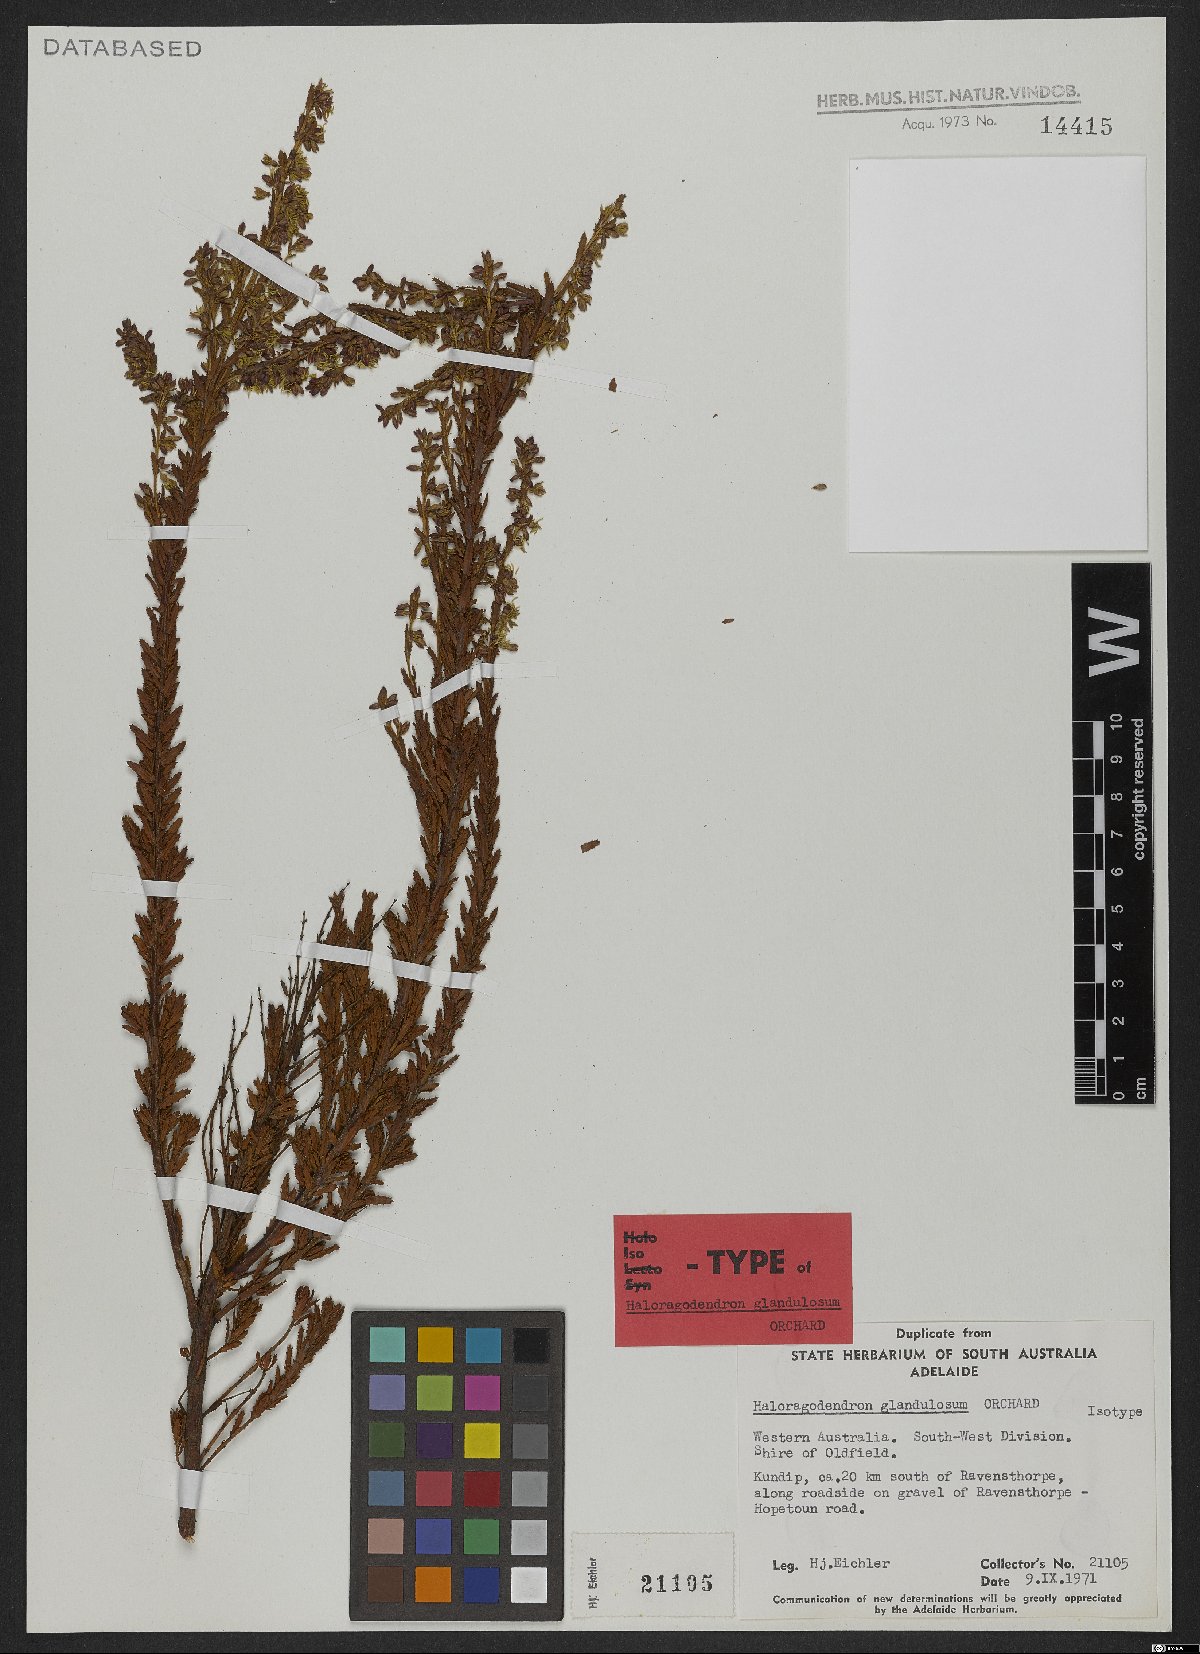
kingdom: Plantae
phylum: Tracheophyta
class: Magnoliopsida
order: Saxifragales
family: Haloragaceae
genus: Glischrocaryon
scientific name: Glischrocaryon glandulosum
